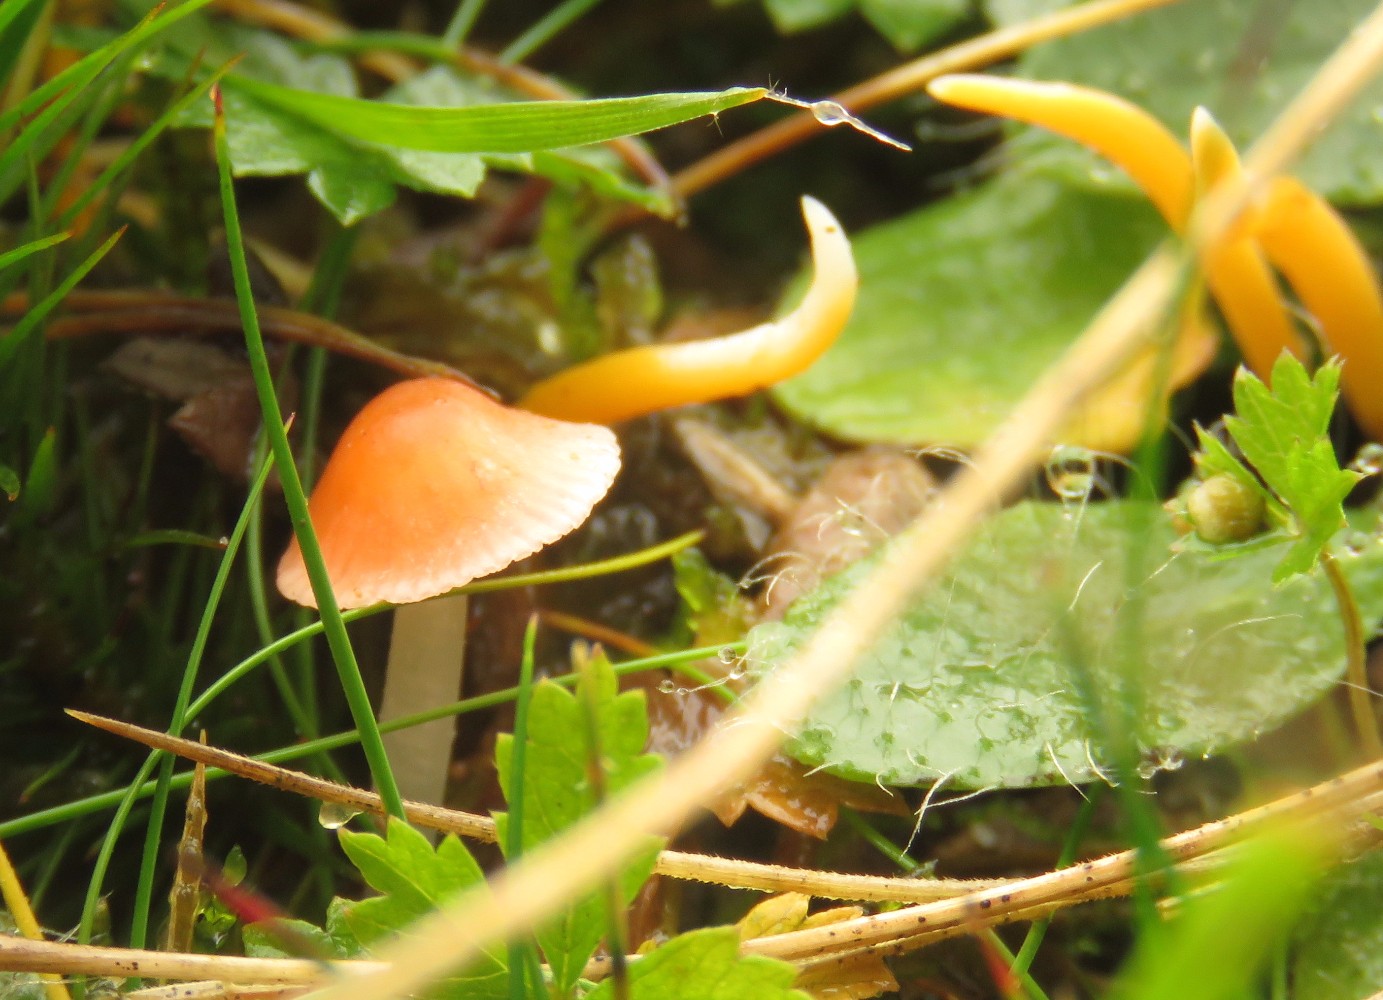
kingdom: Fungi
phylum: Basidiomycota
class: Agaricomycetes
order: Agaricales
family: Mycenaceae
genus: Atheniella
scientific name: Atheniella adonis
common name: rønnerød huesvamp
